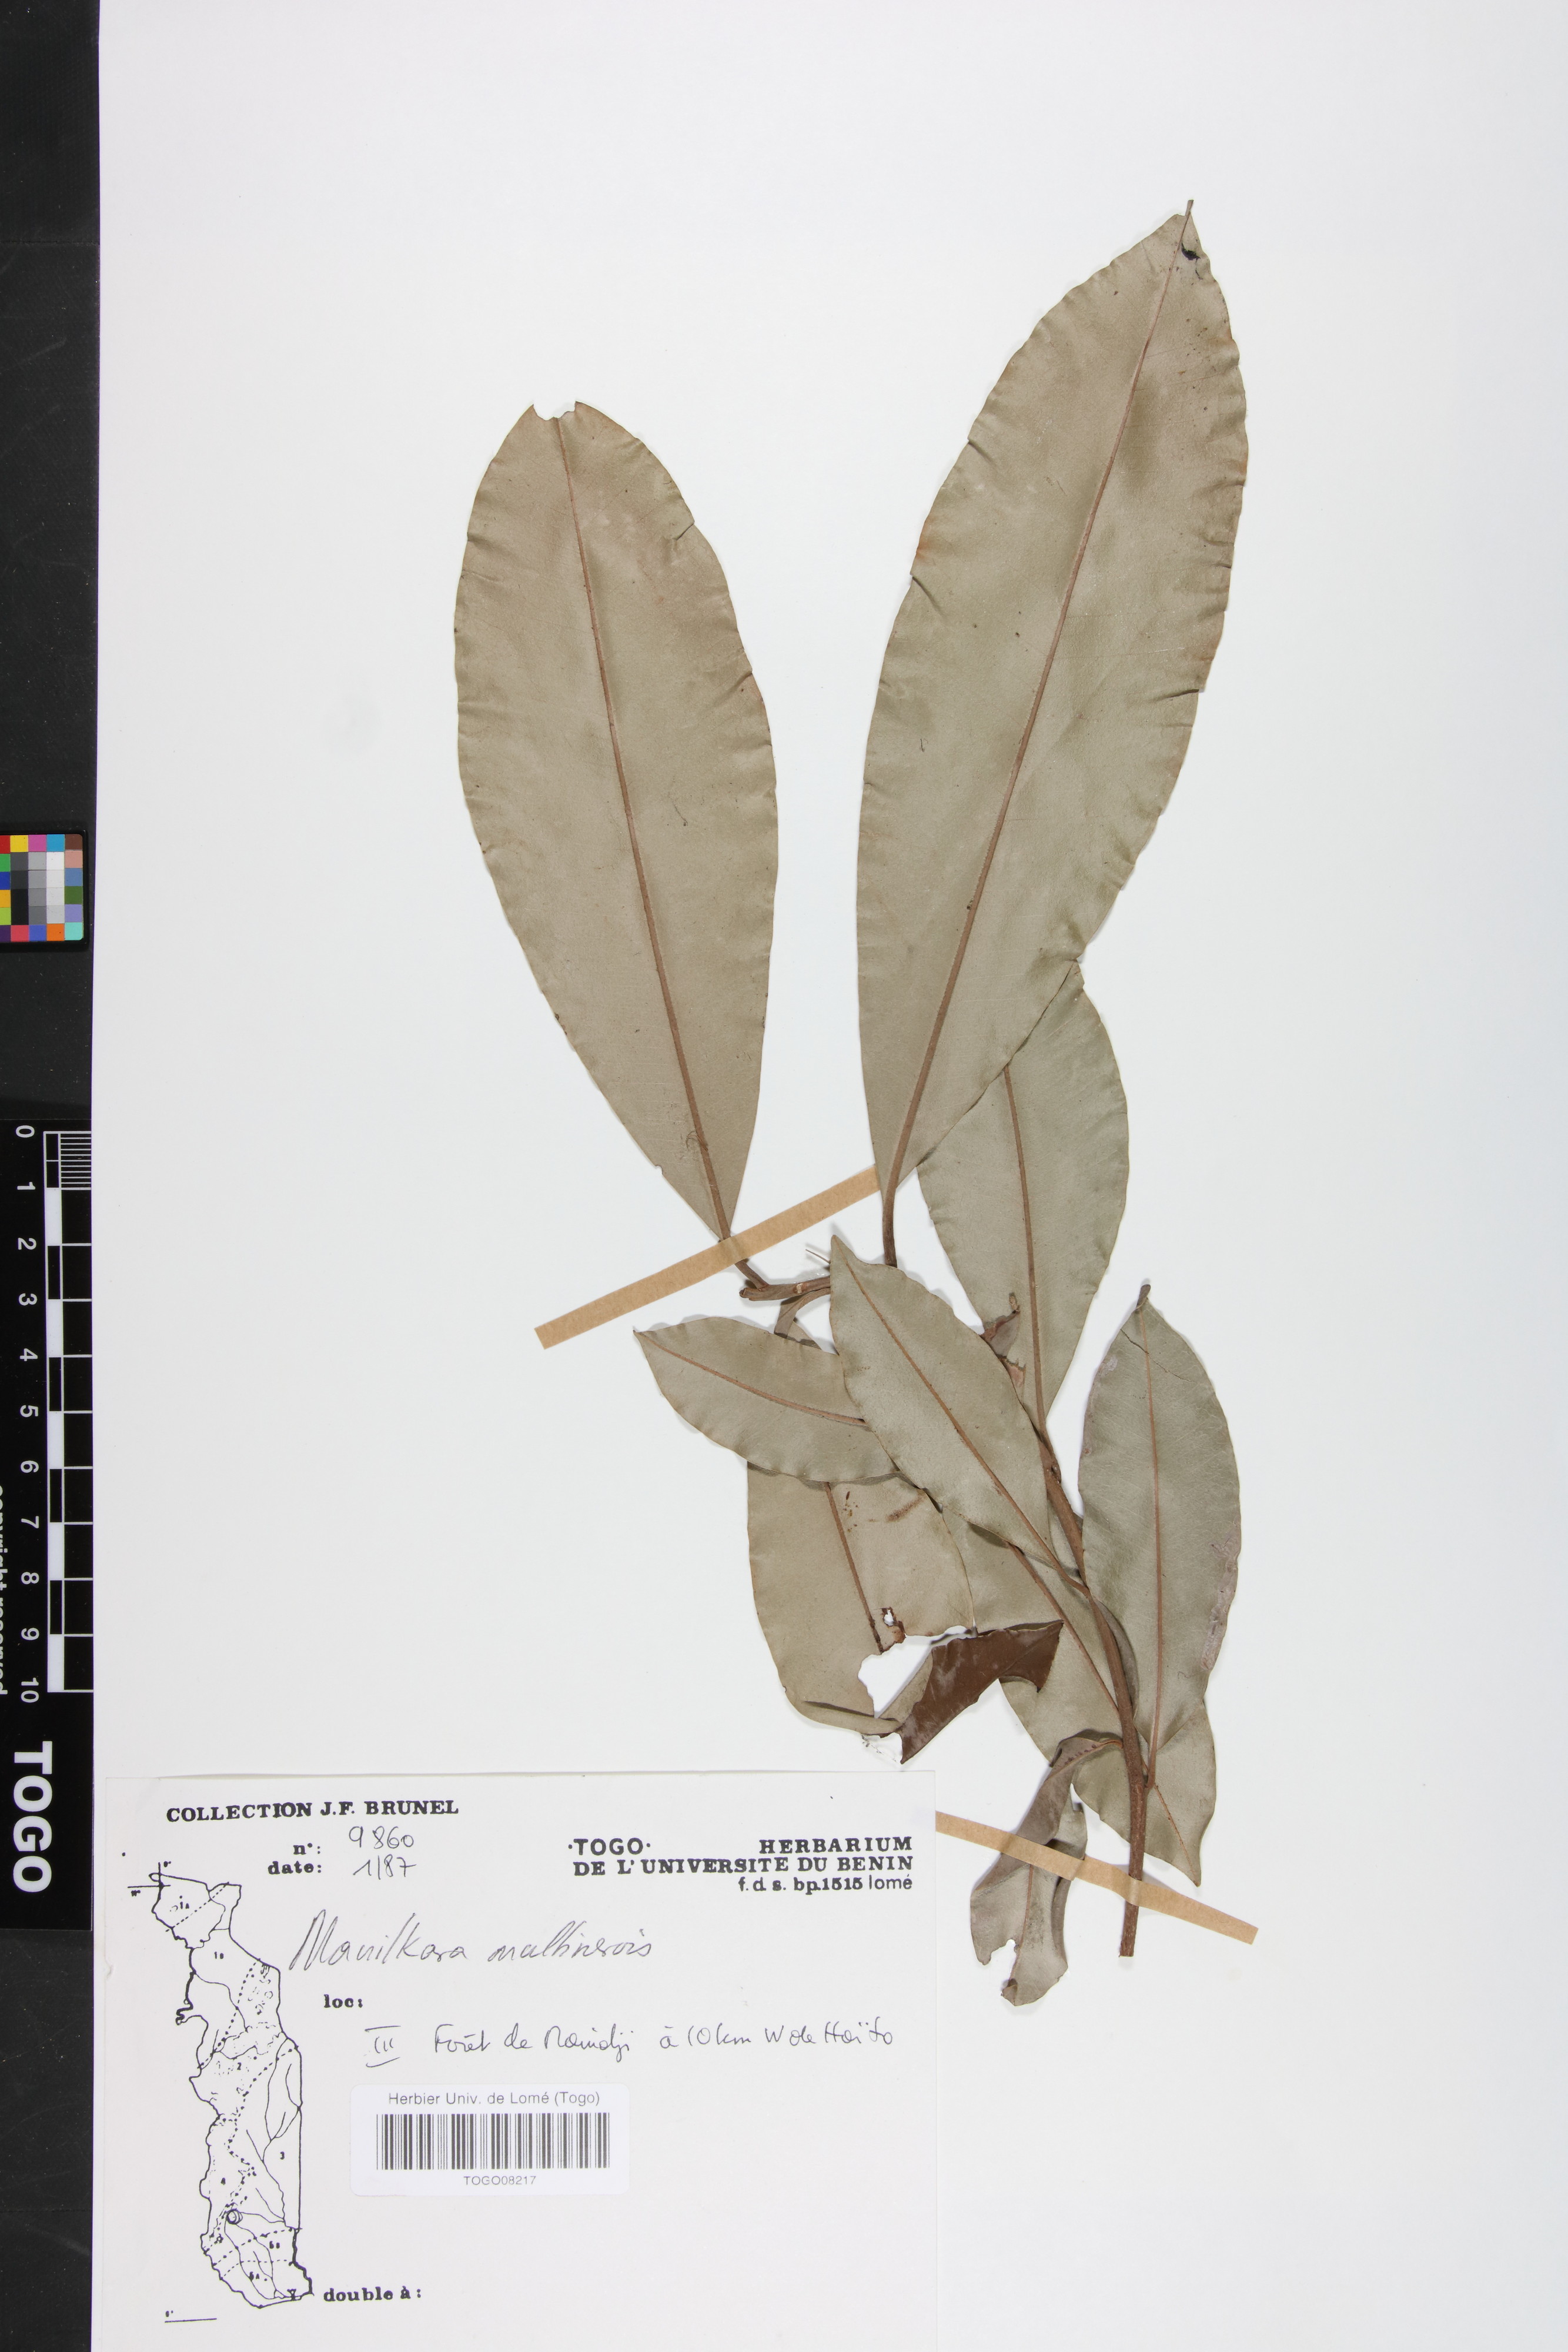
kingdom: Plantae
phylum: Tracheophyta
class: Magnoliopsida
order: Ericales
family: Sapotaceae
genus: Manilkara
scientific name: Manilkara obovata
